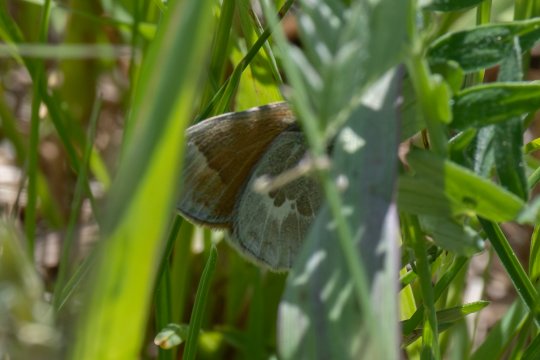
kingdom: Animalia
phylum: Arthropoda
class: Insecta
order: Lepidoptera
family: Nymphalidae
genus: Coenonympha
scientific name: Coenonympha tullia
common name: Large Heath
